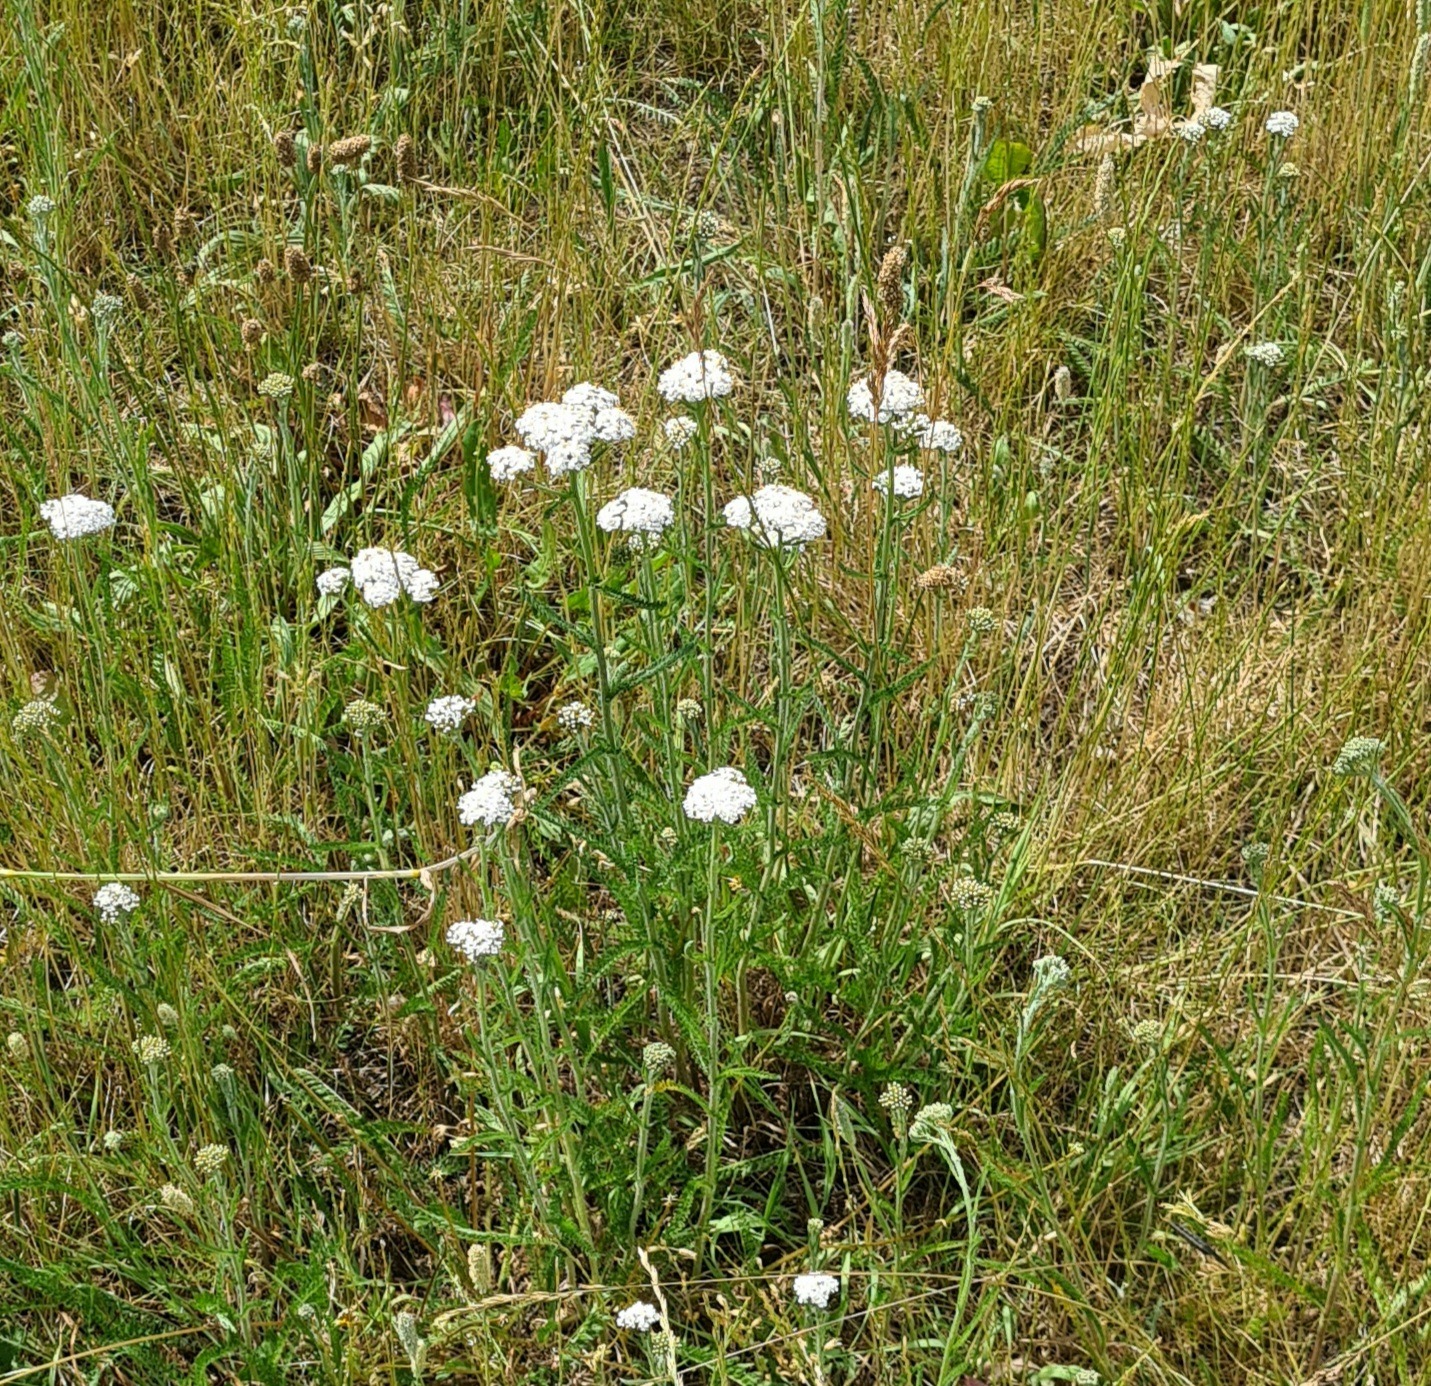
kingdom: Plantae
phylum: Tracheophyta
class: Magnoliopsida
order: Asterales
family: Asteraceae
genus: Achillea
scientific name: Achillea millefolium
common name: Almindelig røllike
